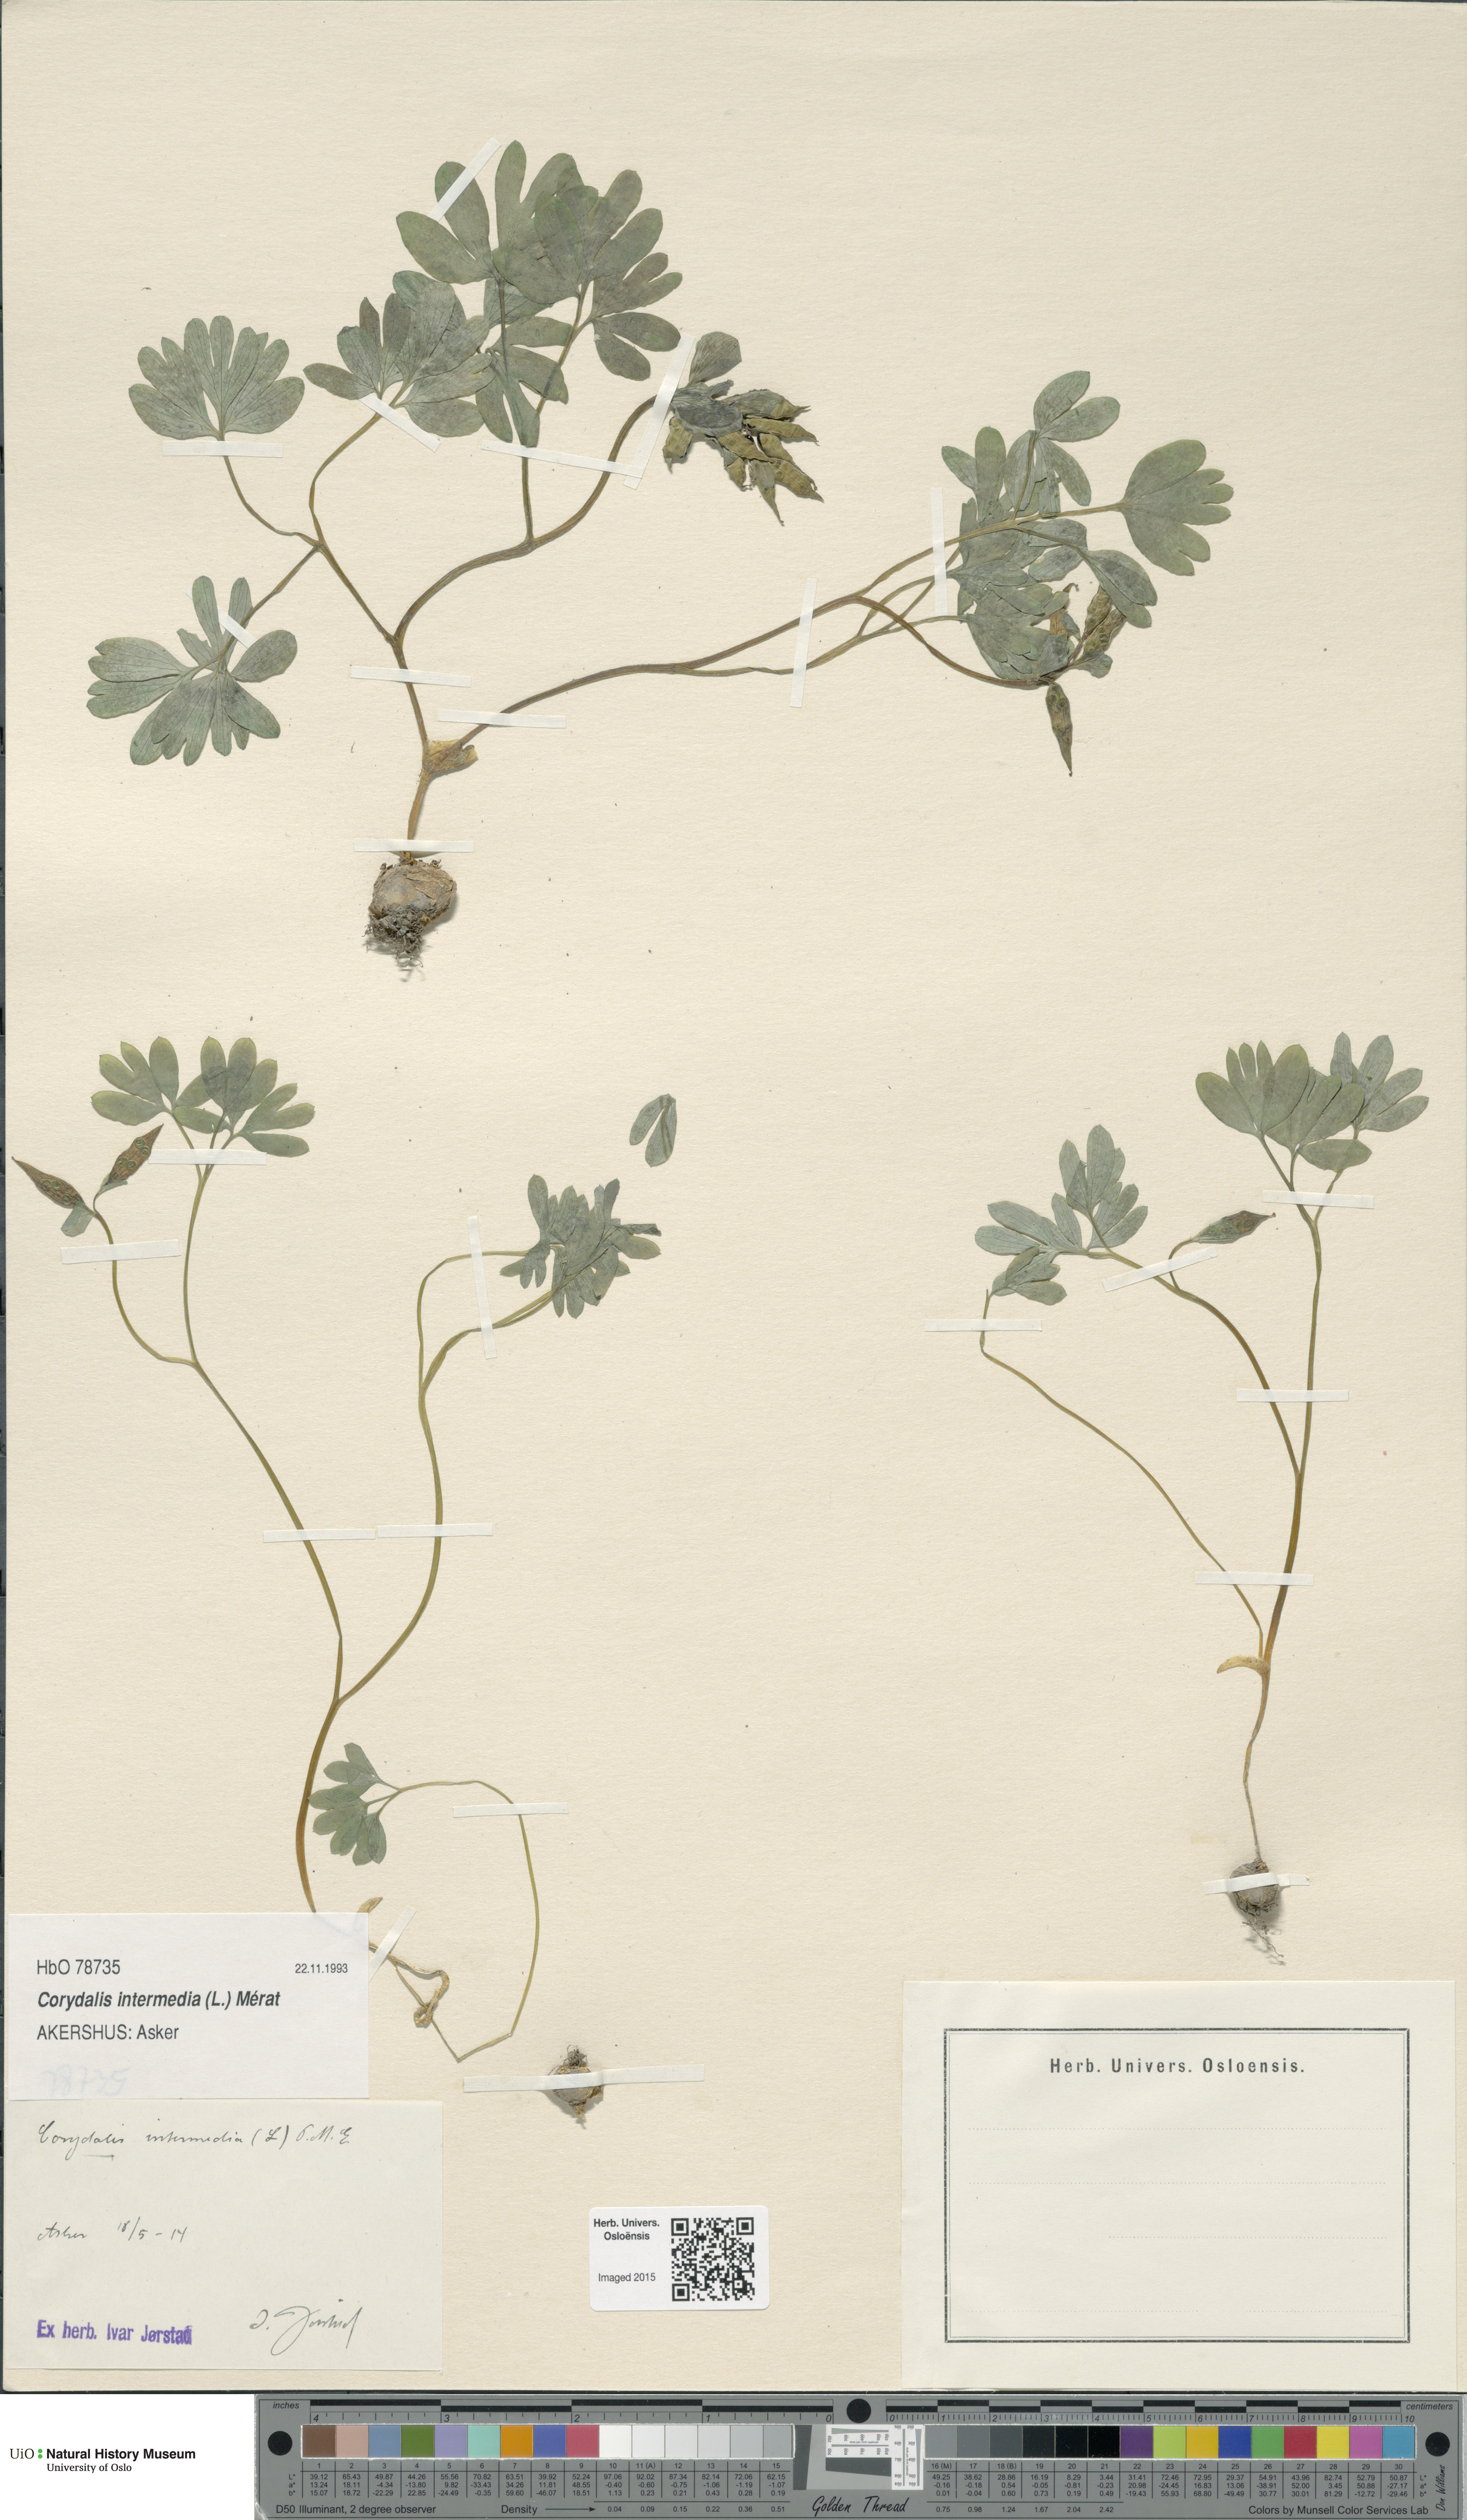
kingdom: Plantae
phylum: Tracheophyta
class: Magnoliopsida
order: Ranunculales
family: Papaveraceae
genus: Corydalis
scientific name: Corydalis intermedia
